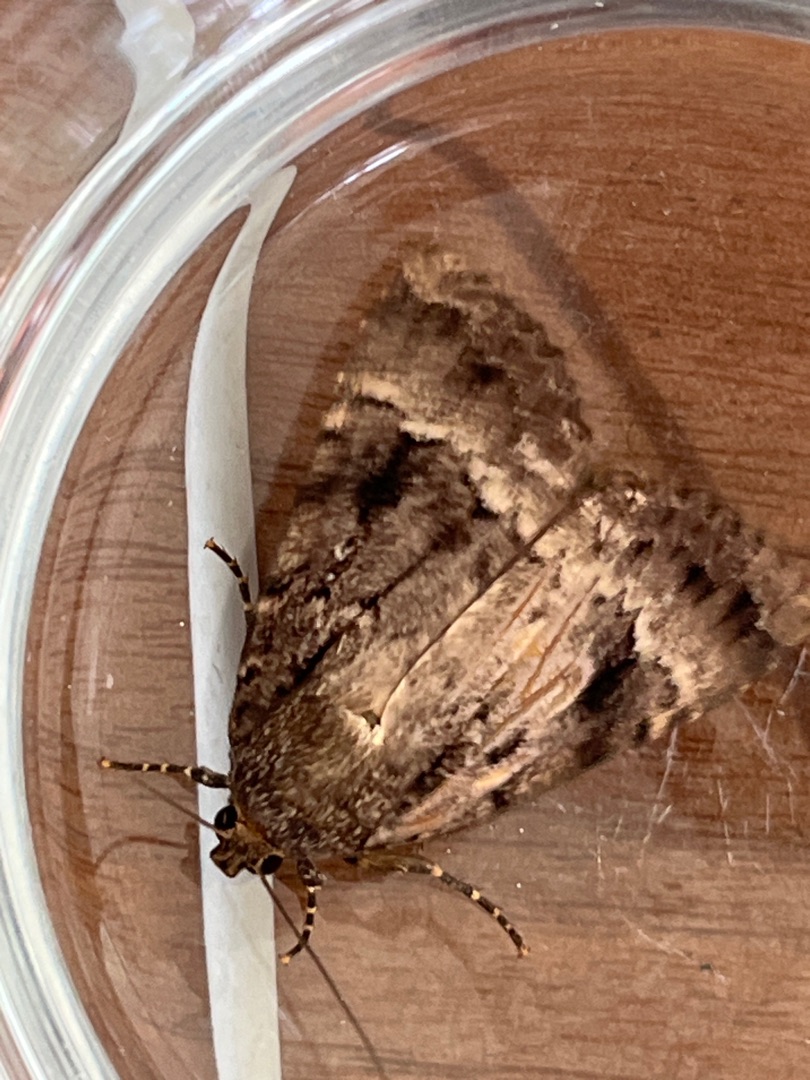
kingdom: Animalia
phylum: Arthropoda
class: Insecta
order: Lepidoptera
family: Noctuidae
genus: Amphipyra
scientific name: Amphipyra pyramidea
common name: Pyramideugle
